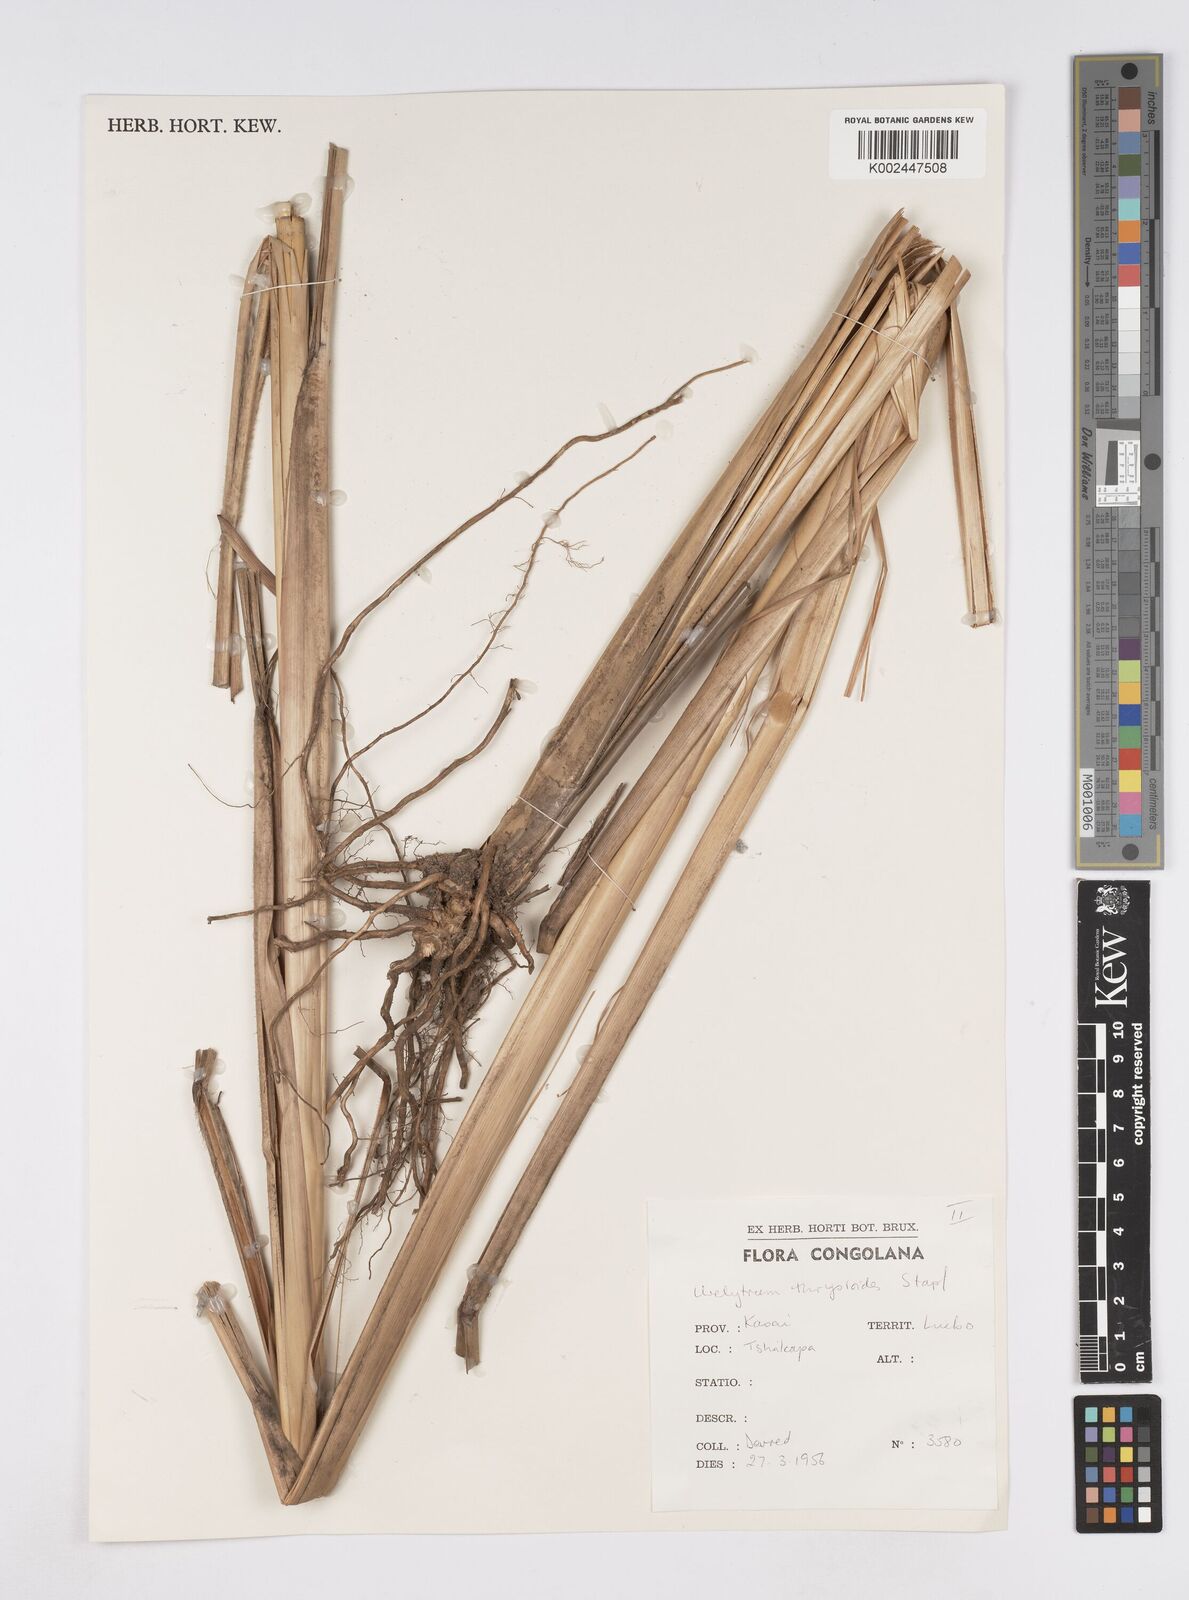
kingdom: Plantae
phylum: Tracheophyta
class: Liliopsida
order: Poales
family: Poaceae
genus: Urelytrum
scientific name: Urelytrum giganteum
